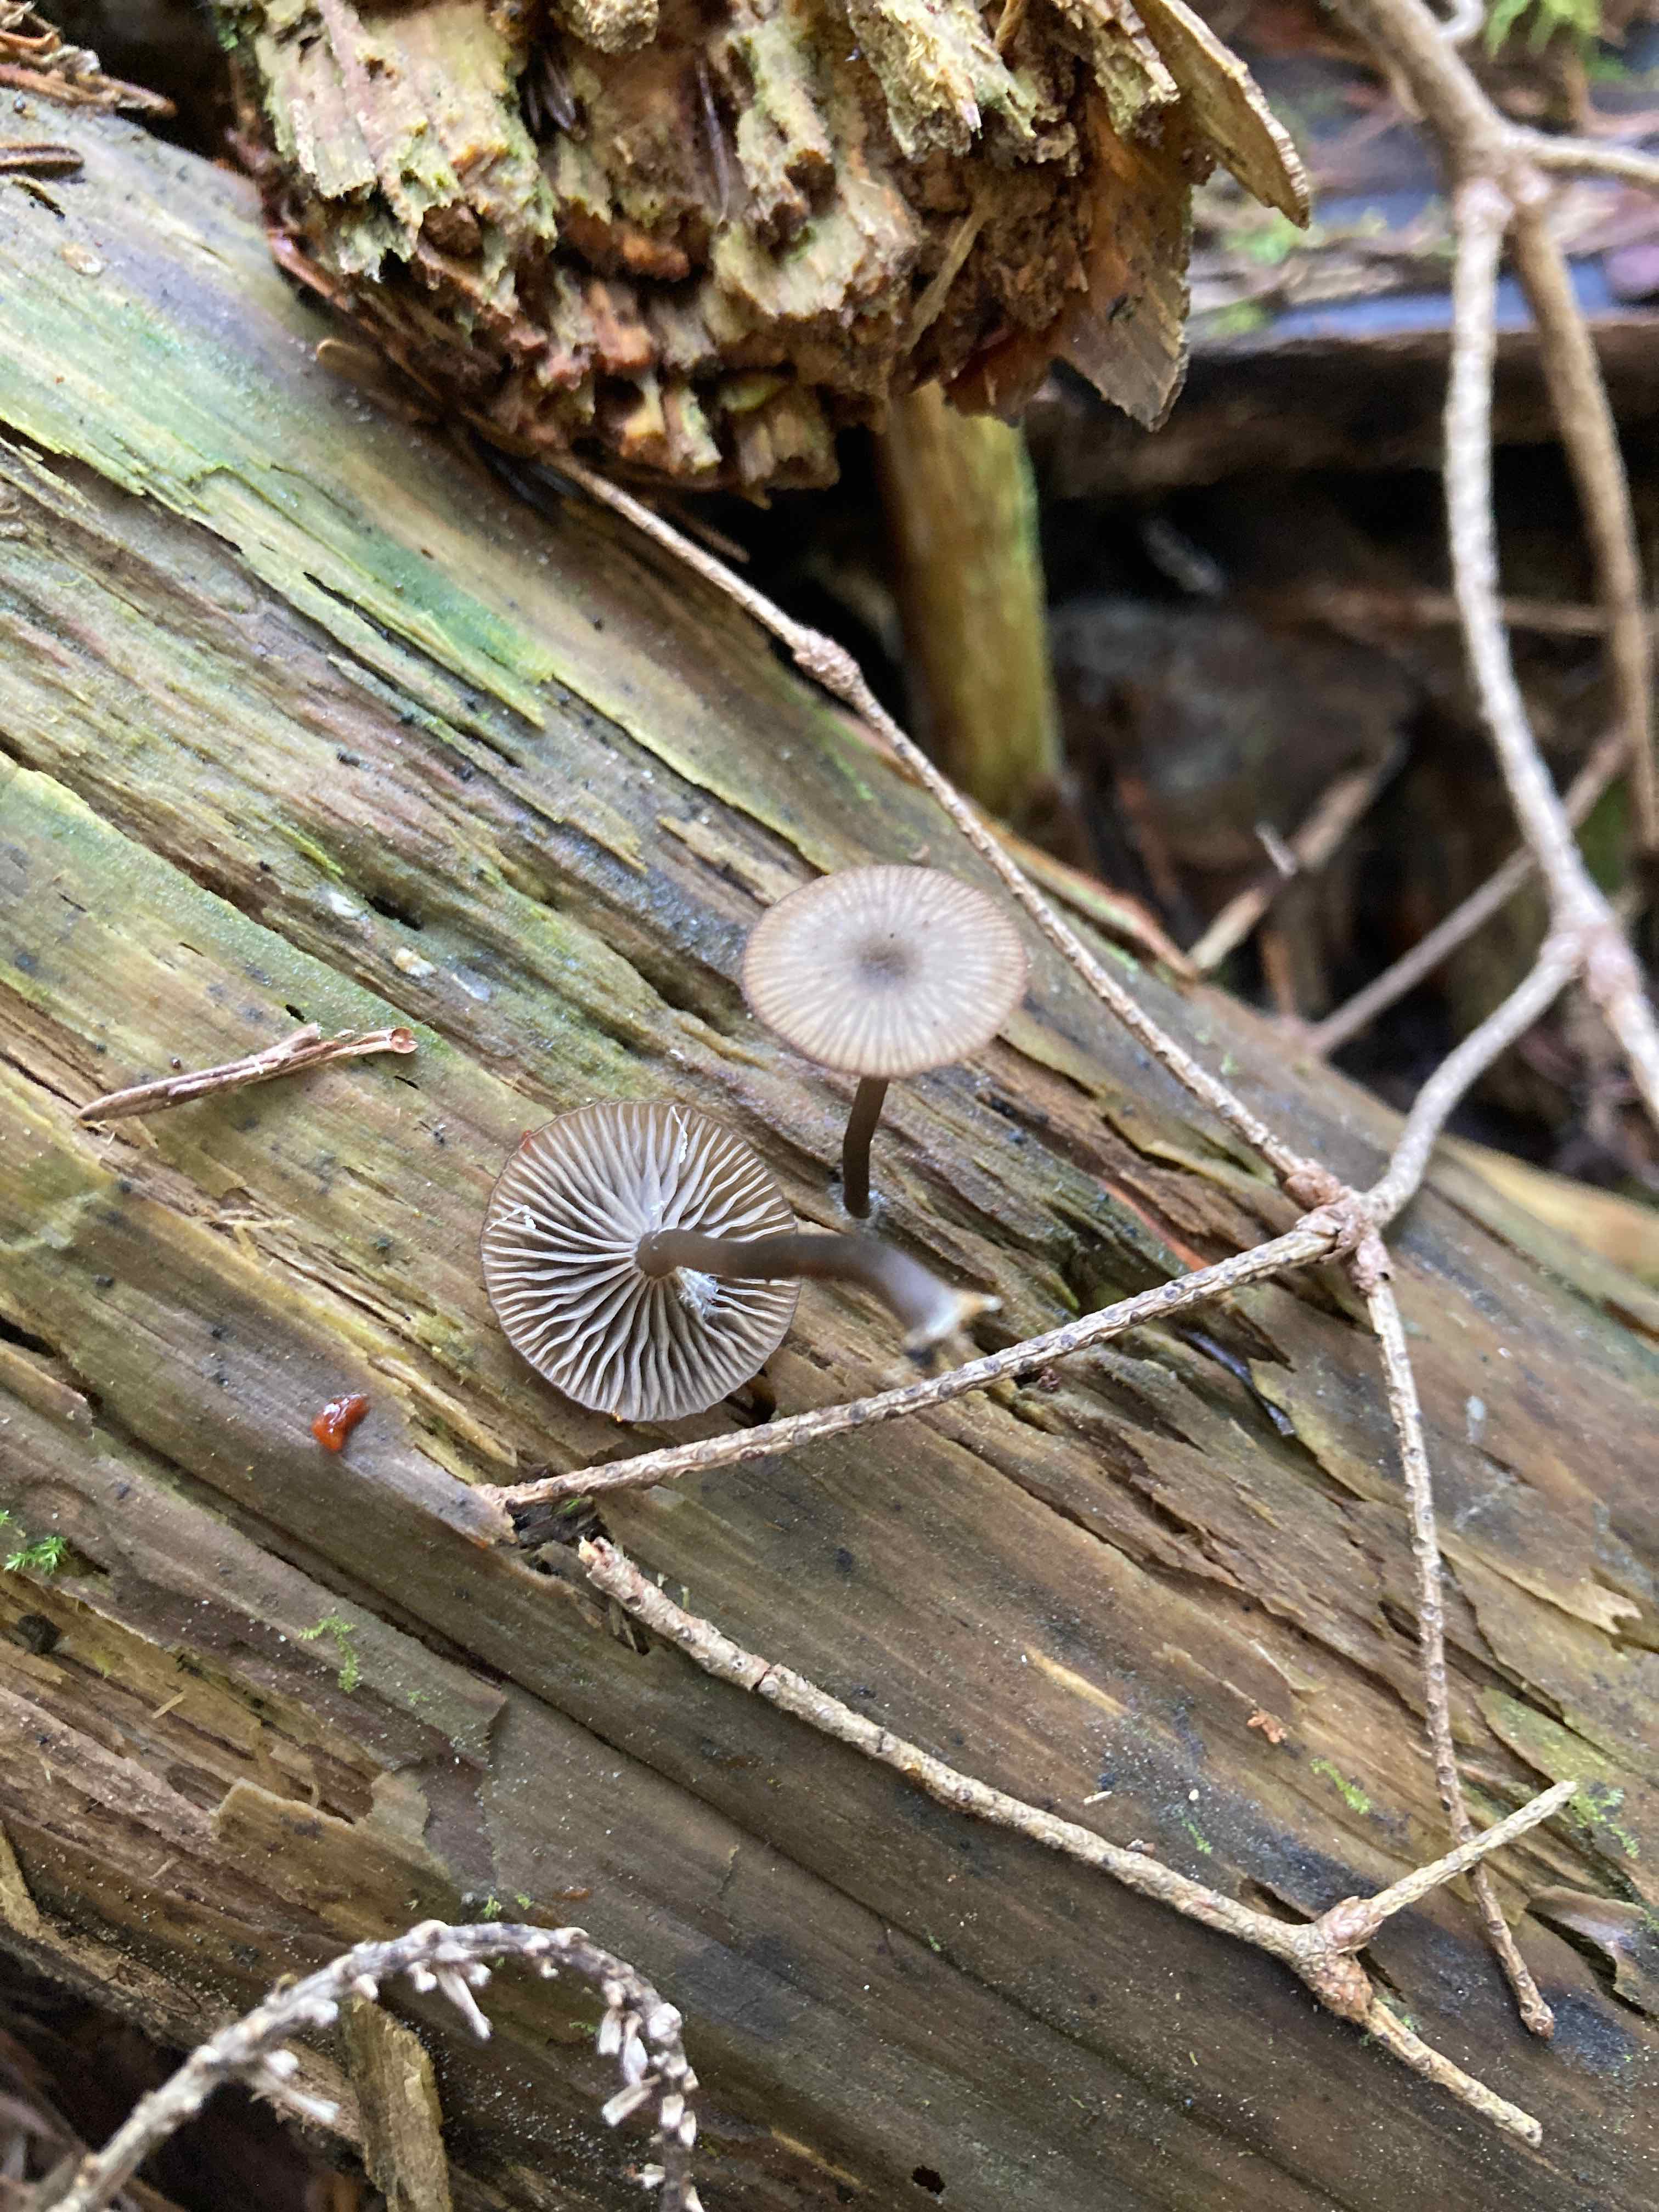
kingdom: Fungi
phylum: Basidiomycota
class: Agaricomycetes
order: Agaricales
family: Hygrophoraceae
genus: Arrhenia
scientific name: Arrhenia epichysium
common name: ved-fontænehat
